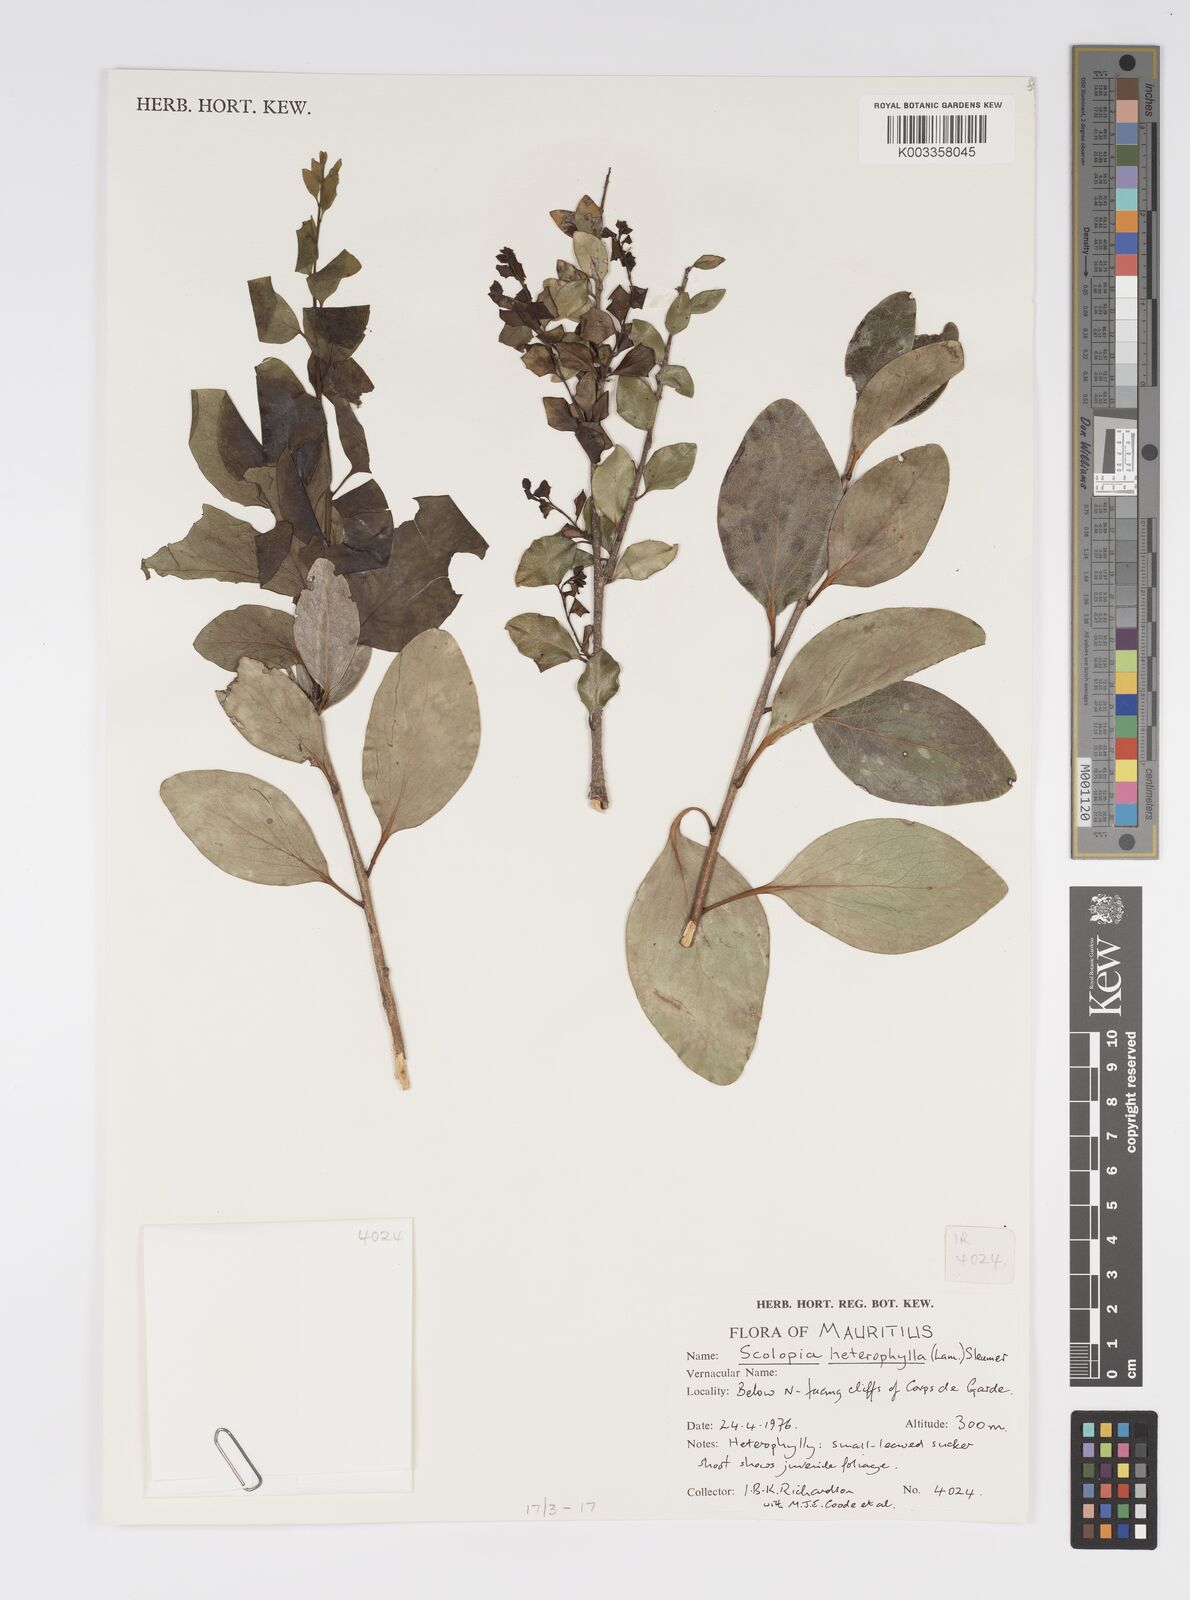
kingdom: Plantae
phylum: Tracheophyta
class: Magnoliopsida
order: Malpighiales
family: Salicaceae
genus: Scolopia
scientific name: Scolopia heterophylla
